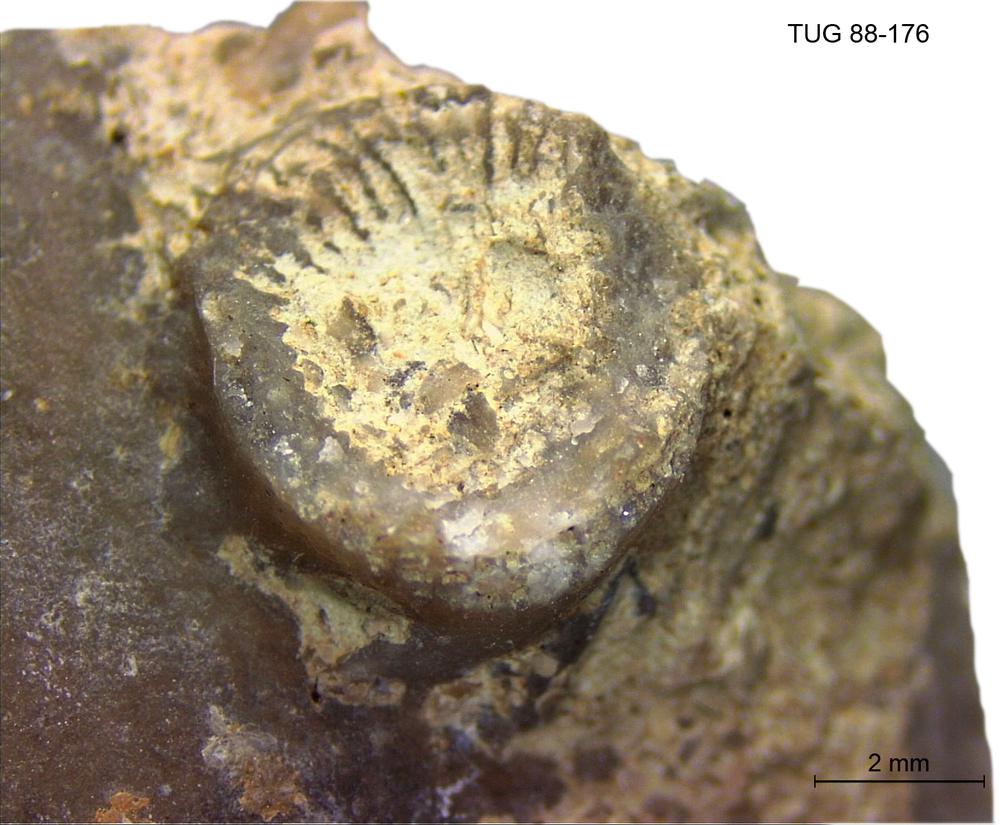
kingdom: Animalia
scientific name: Animalia
